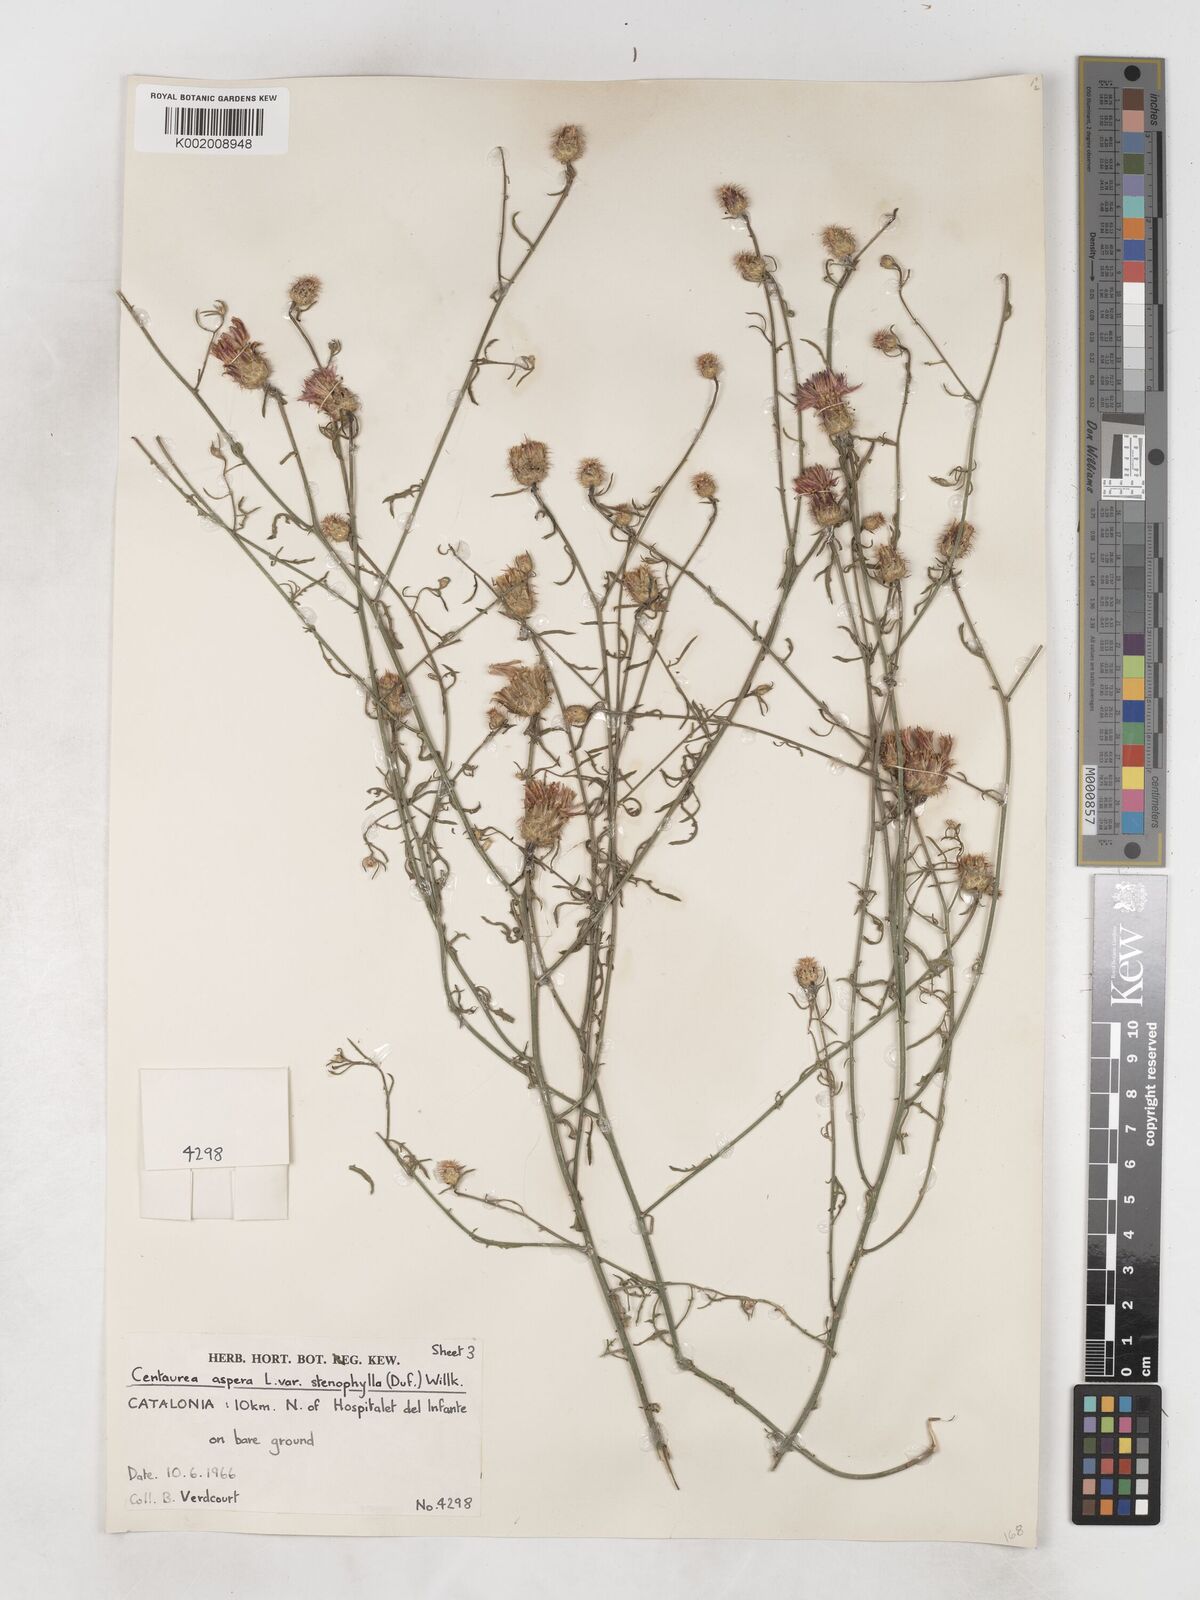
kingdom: Plantae
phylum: Tracheophyta
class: Magnoliopsida
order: Asterales
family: Asteraceae
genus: Centaurea
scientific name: Centaurea aspera
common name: Rough star-thistle
